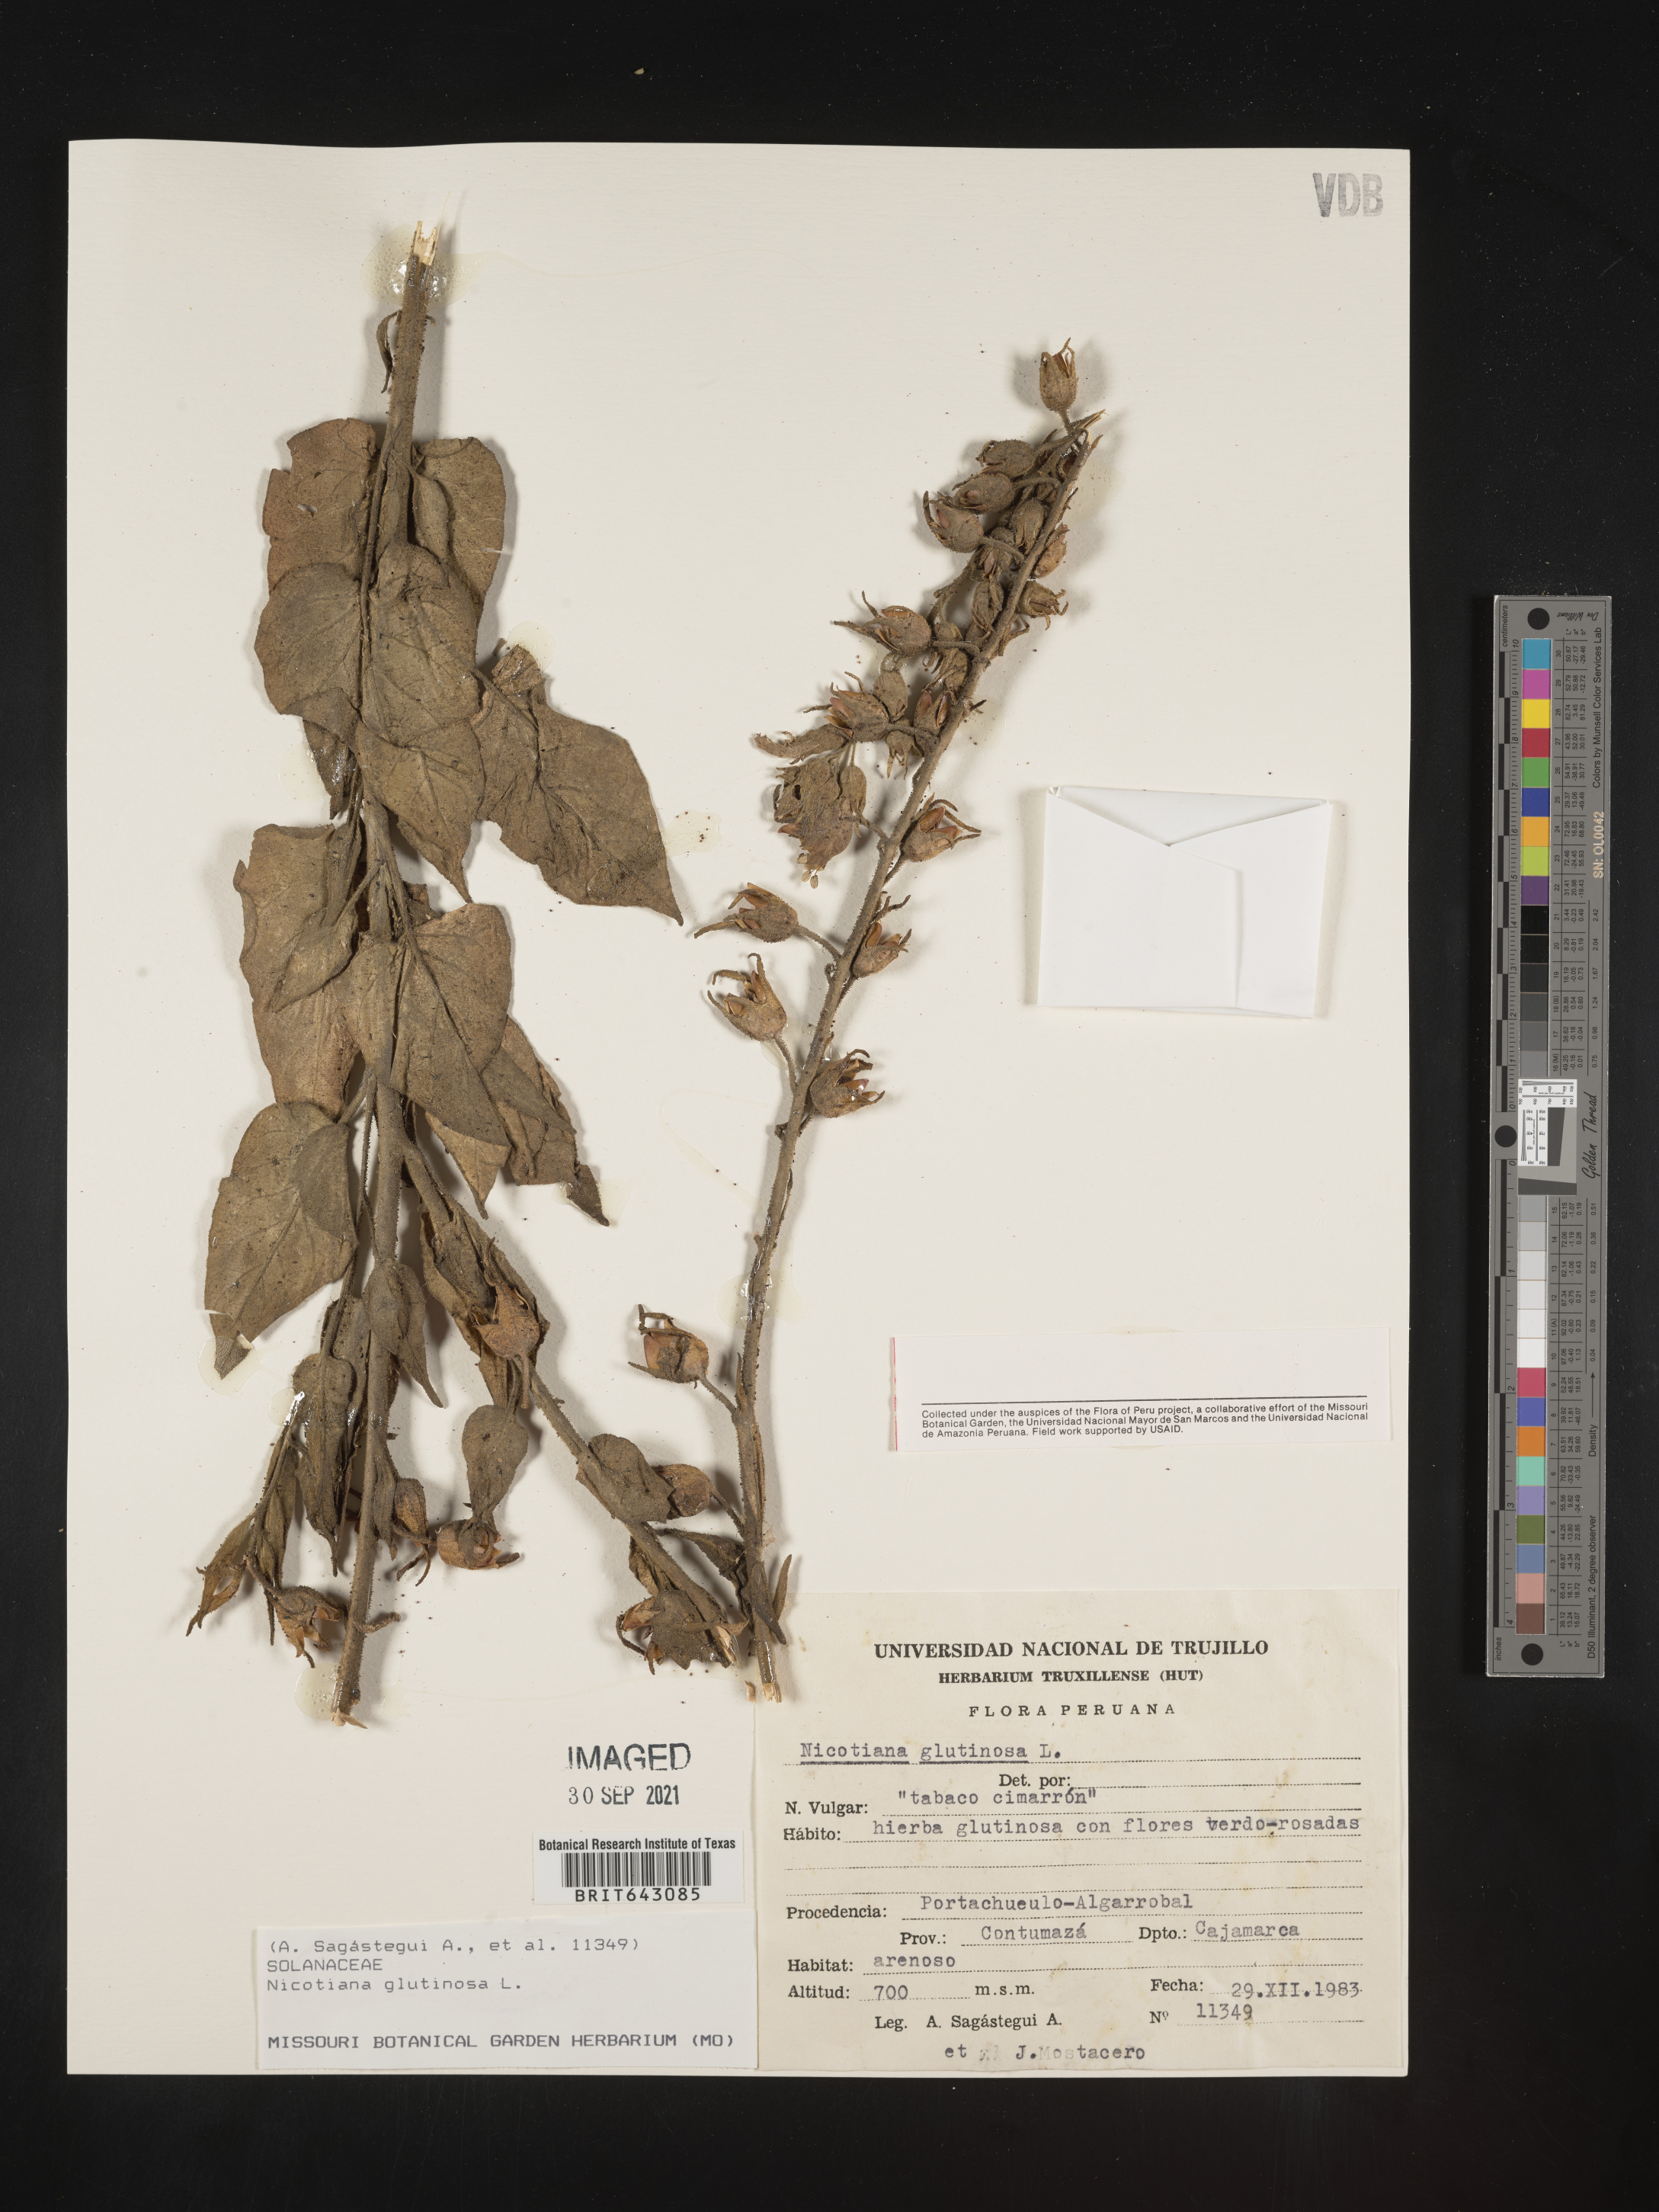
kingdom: Plantae
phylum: Tracheophyta
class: Magnoliopsida
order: Solanales
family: Solanaceae
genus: Nicotiana
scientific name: Nicotiana
